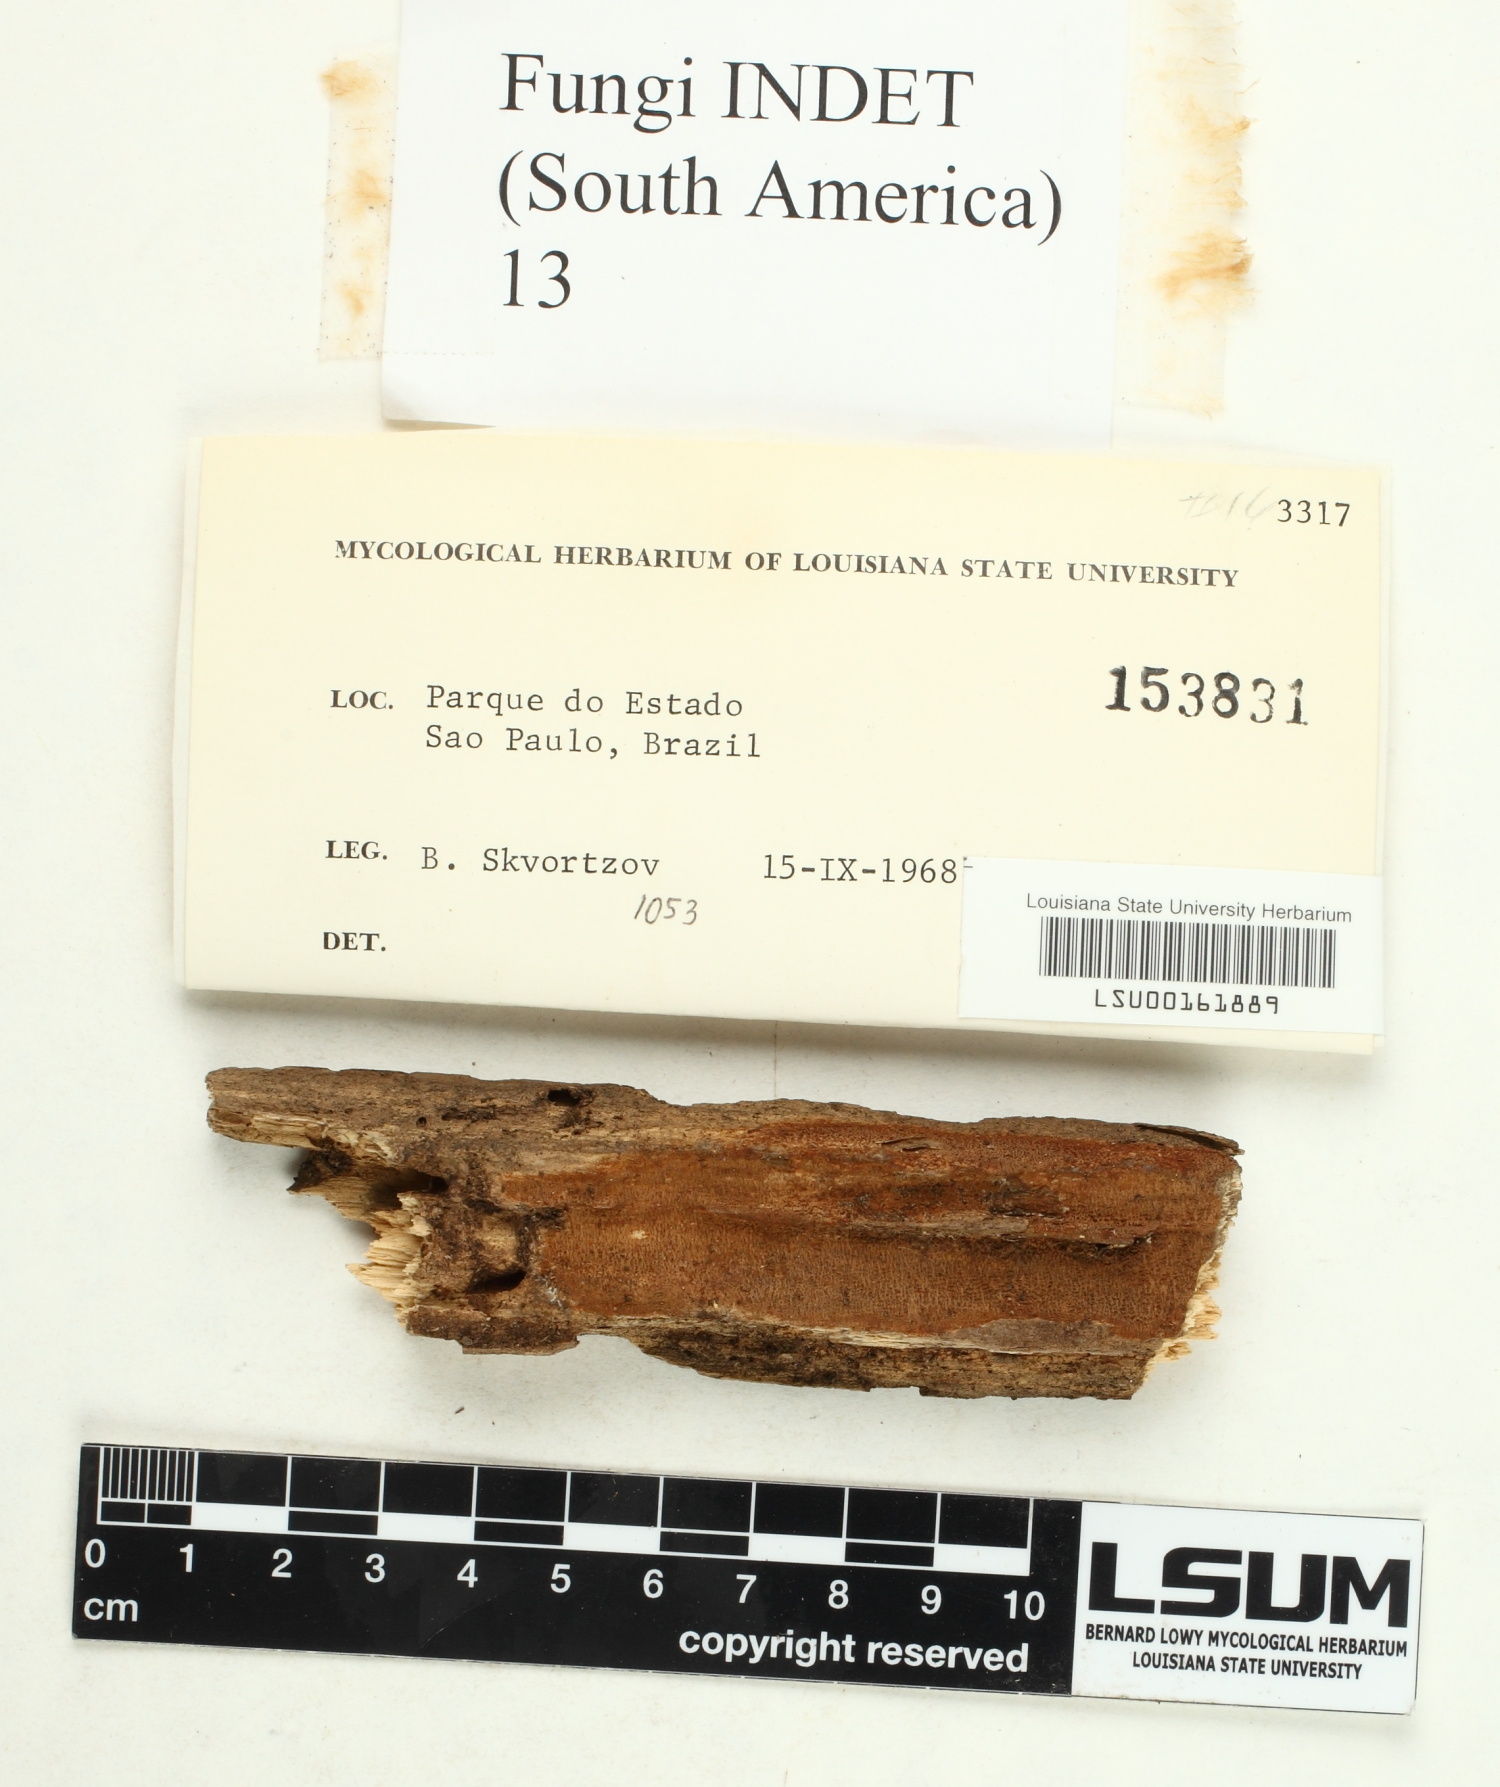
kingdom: Fungi
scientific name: Fungi
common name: Fungi
